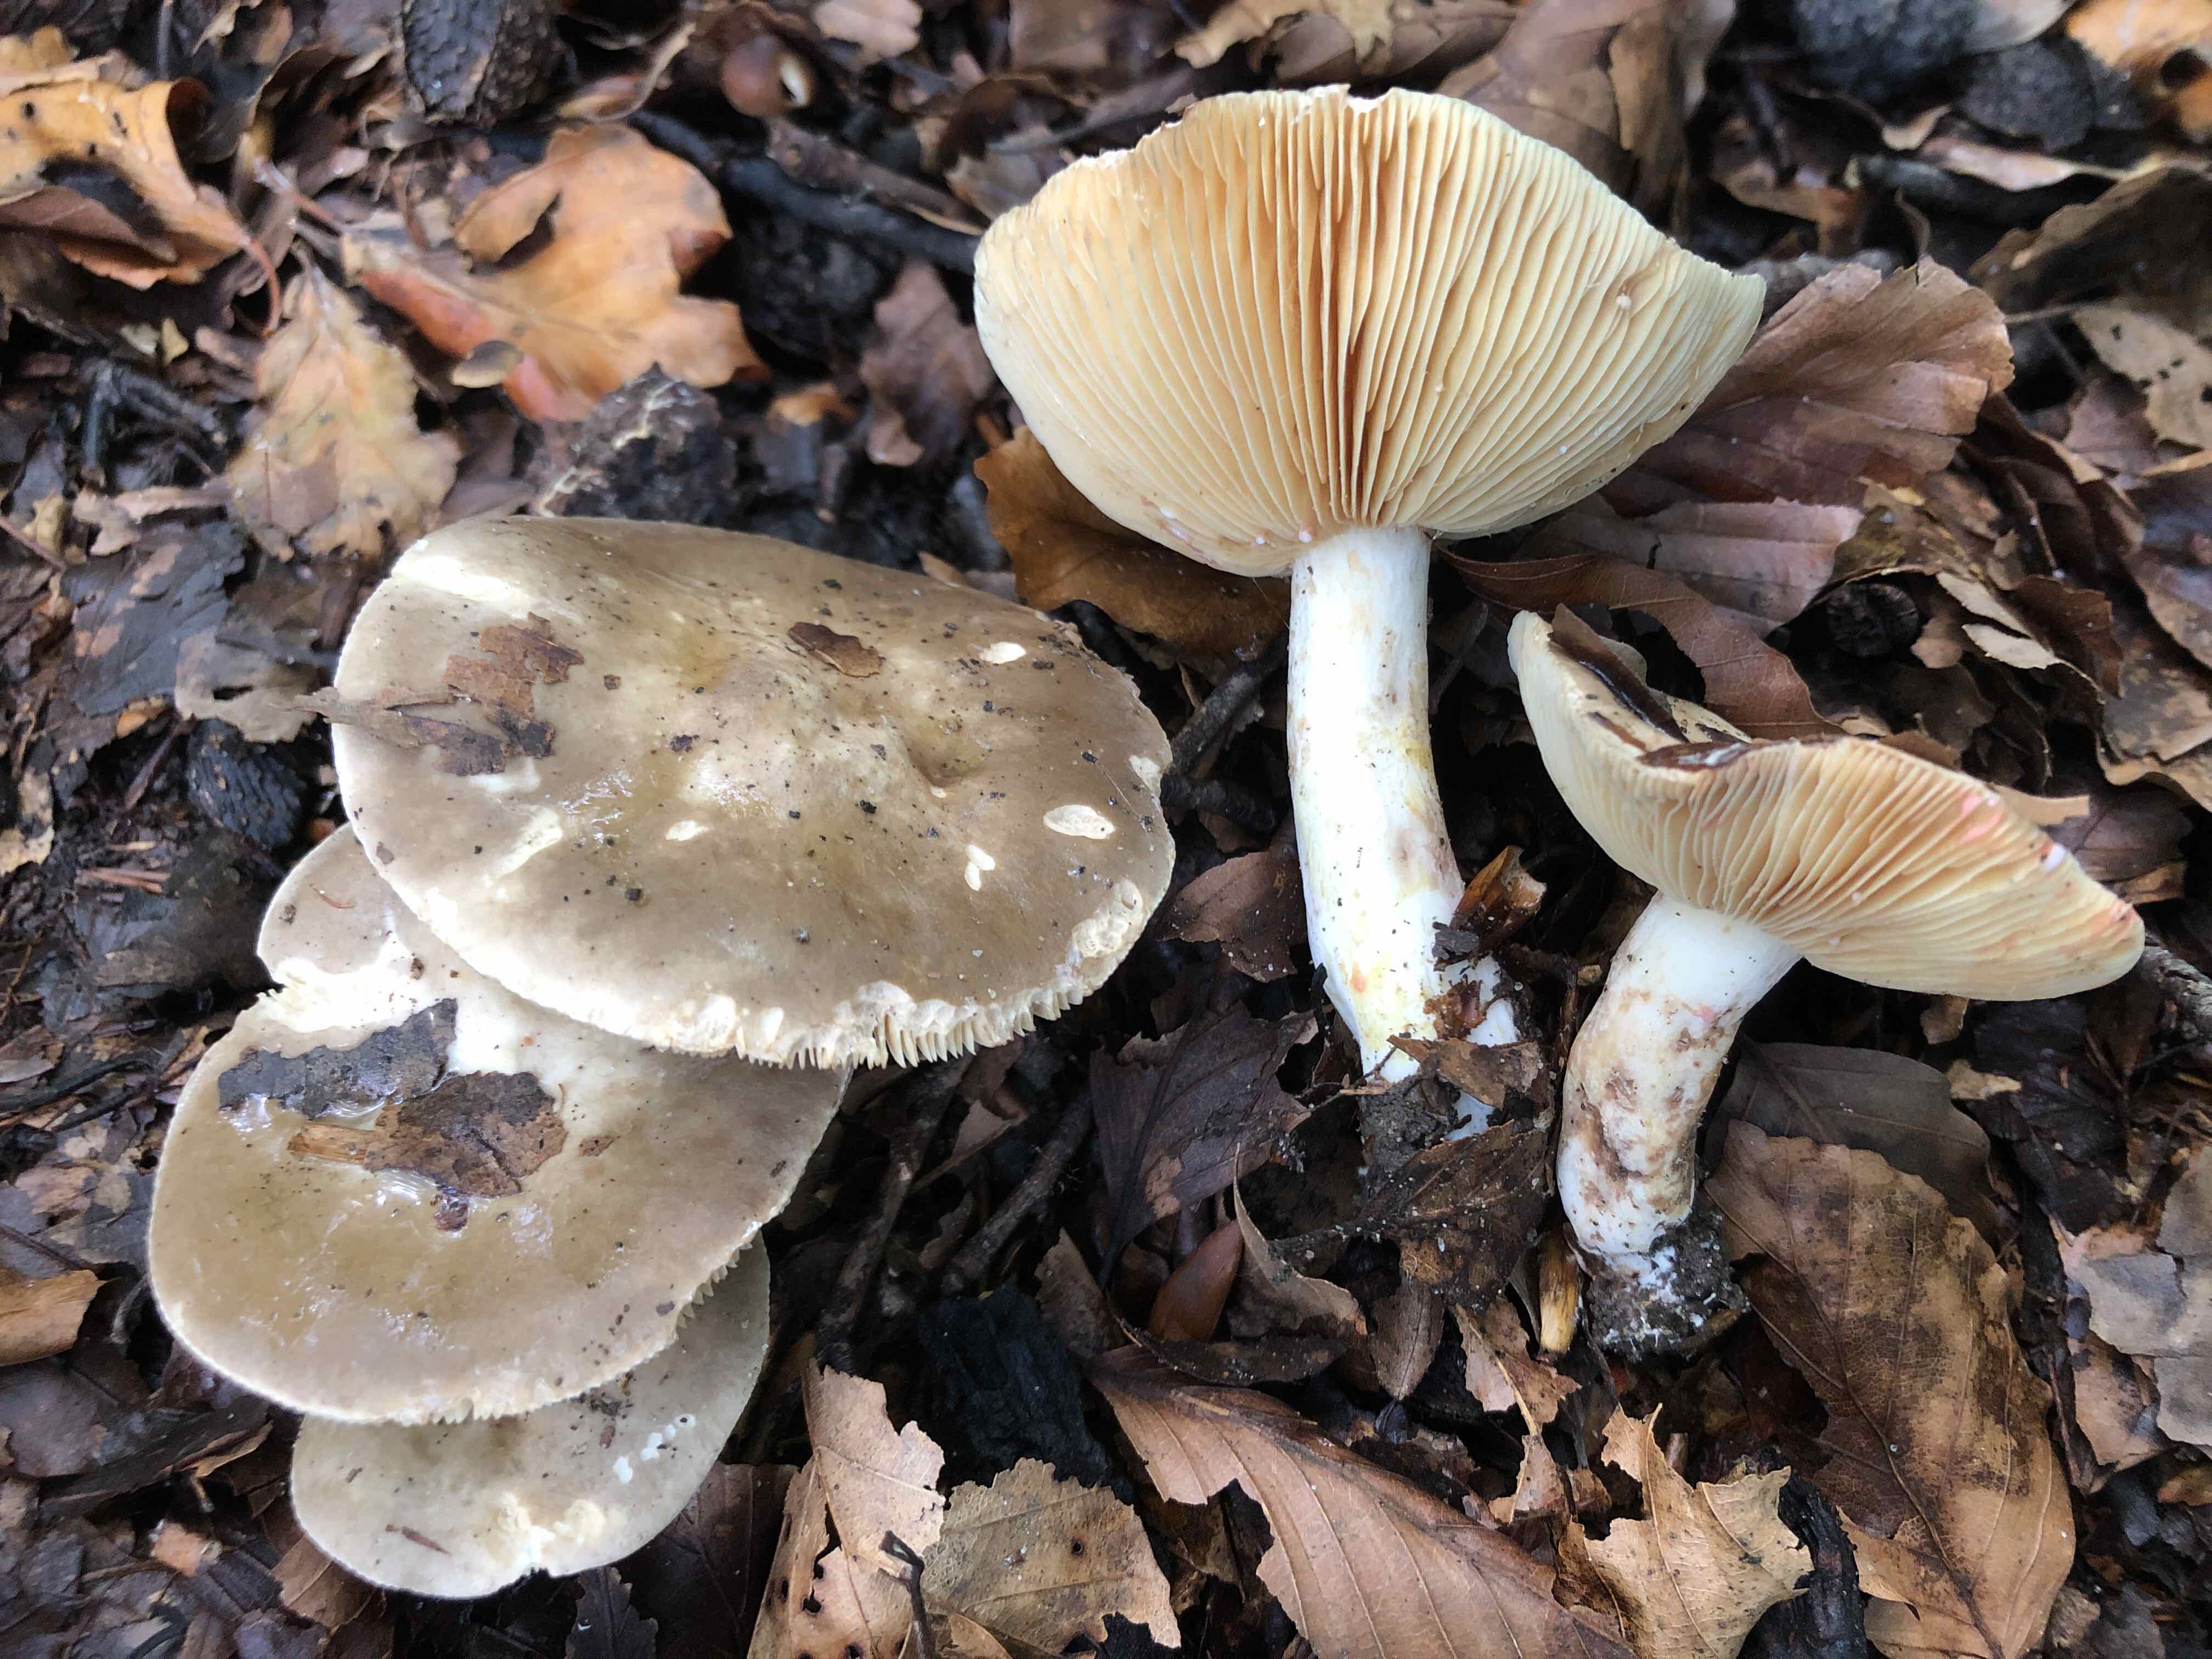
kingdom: Fungi
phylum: Basidiomycota
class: Agaricomycetes
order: Russulales
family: Russulaceae
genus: Lactarius
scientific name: Lactarius acris
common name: rosamælket mælkehat
